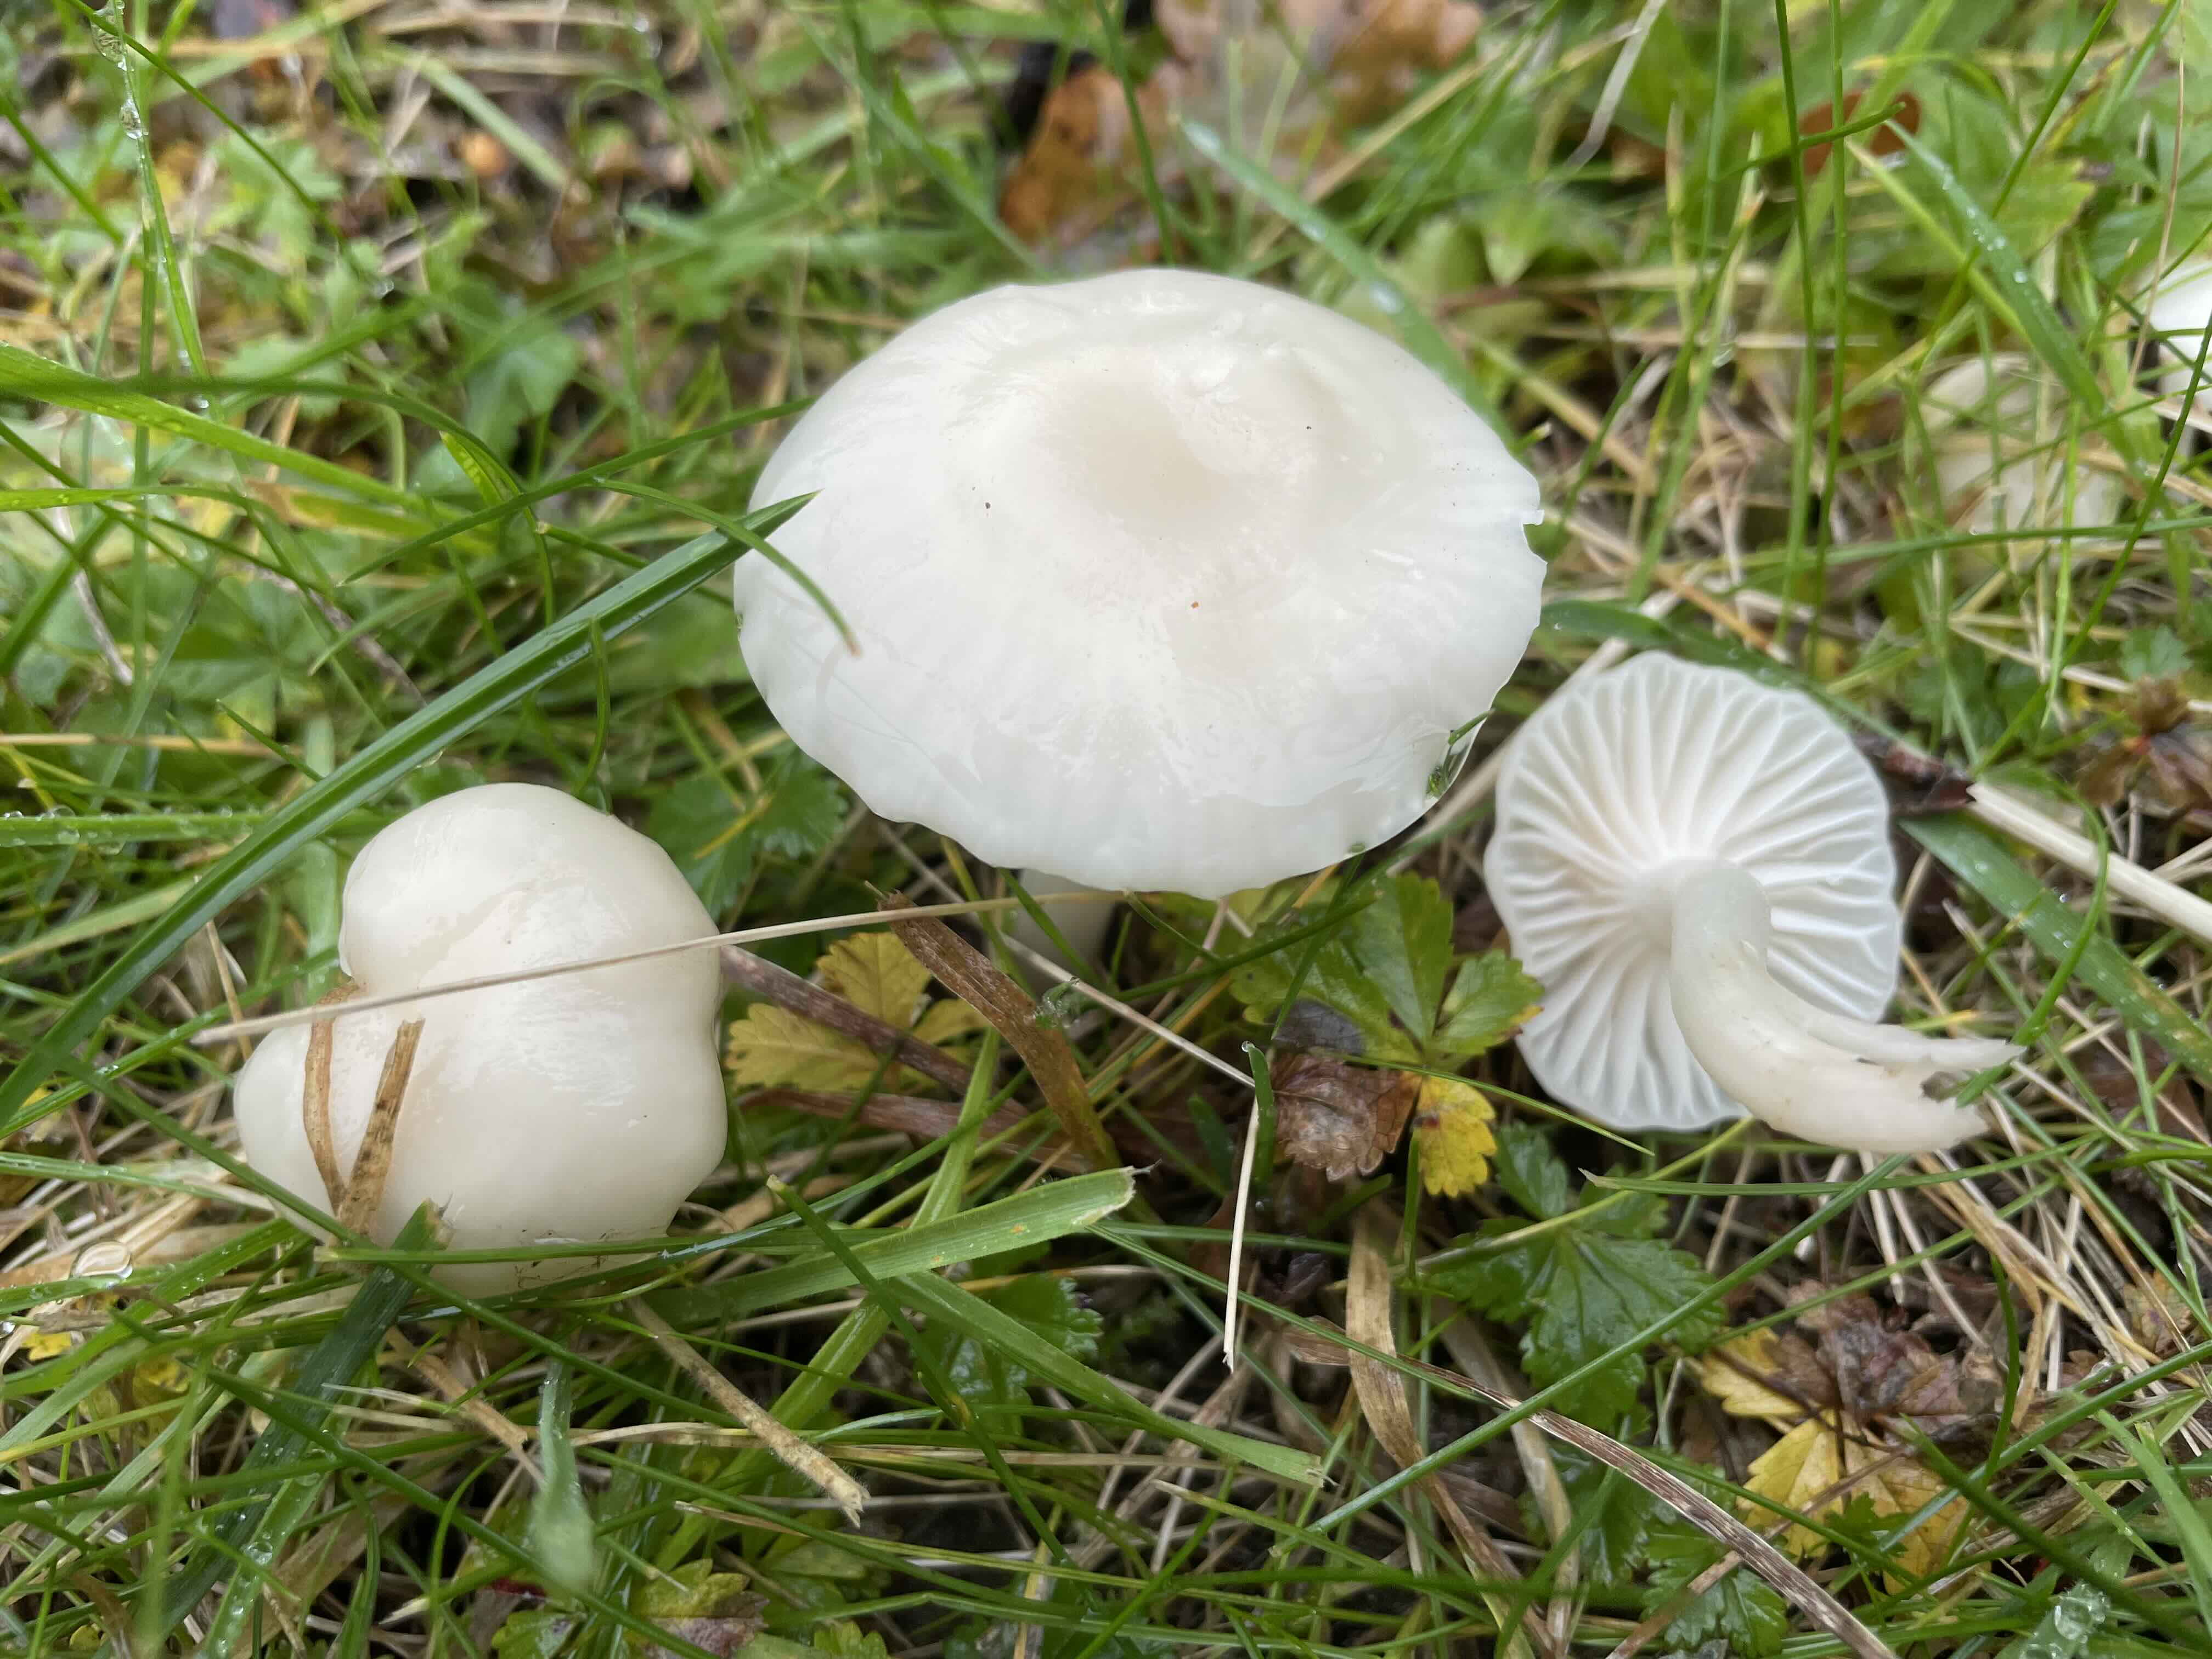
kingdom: Fungi
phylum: Basidiomycota
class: Agaricomycetes
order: Agaricales
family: Hygrophoraceae
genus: Cuphophyllus
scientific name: Cuphophyllus virgineus
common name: snehvid vokshat
